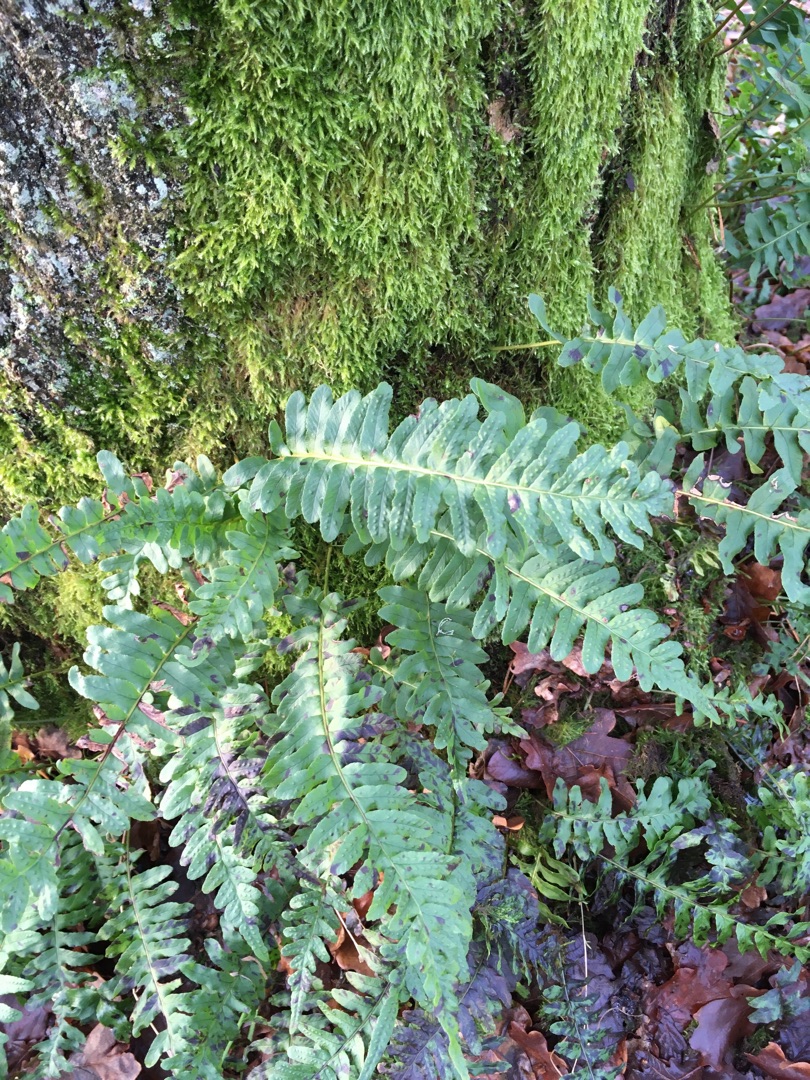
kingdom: Plantae
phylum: Tracheophyta
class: Polypodiopsida
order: Polypodiales
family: Polypodiaceae
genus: Polypodium
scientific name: Polypodium vulgare
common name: Almindelig engelsød
